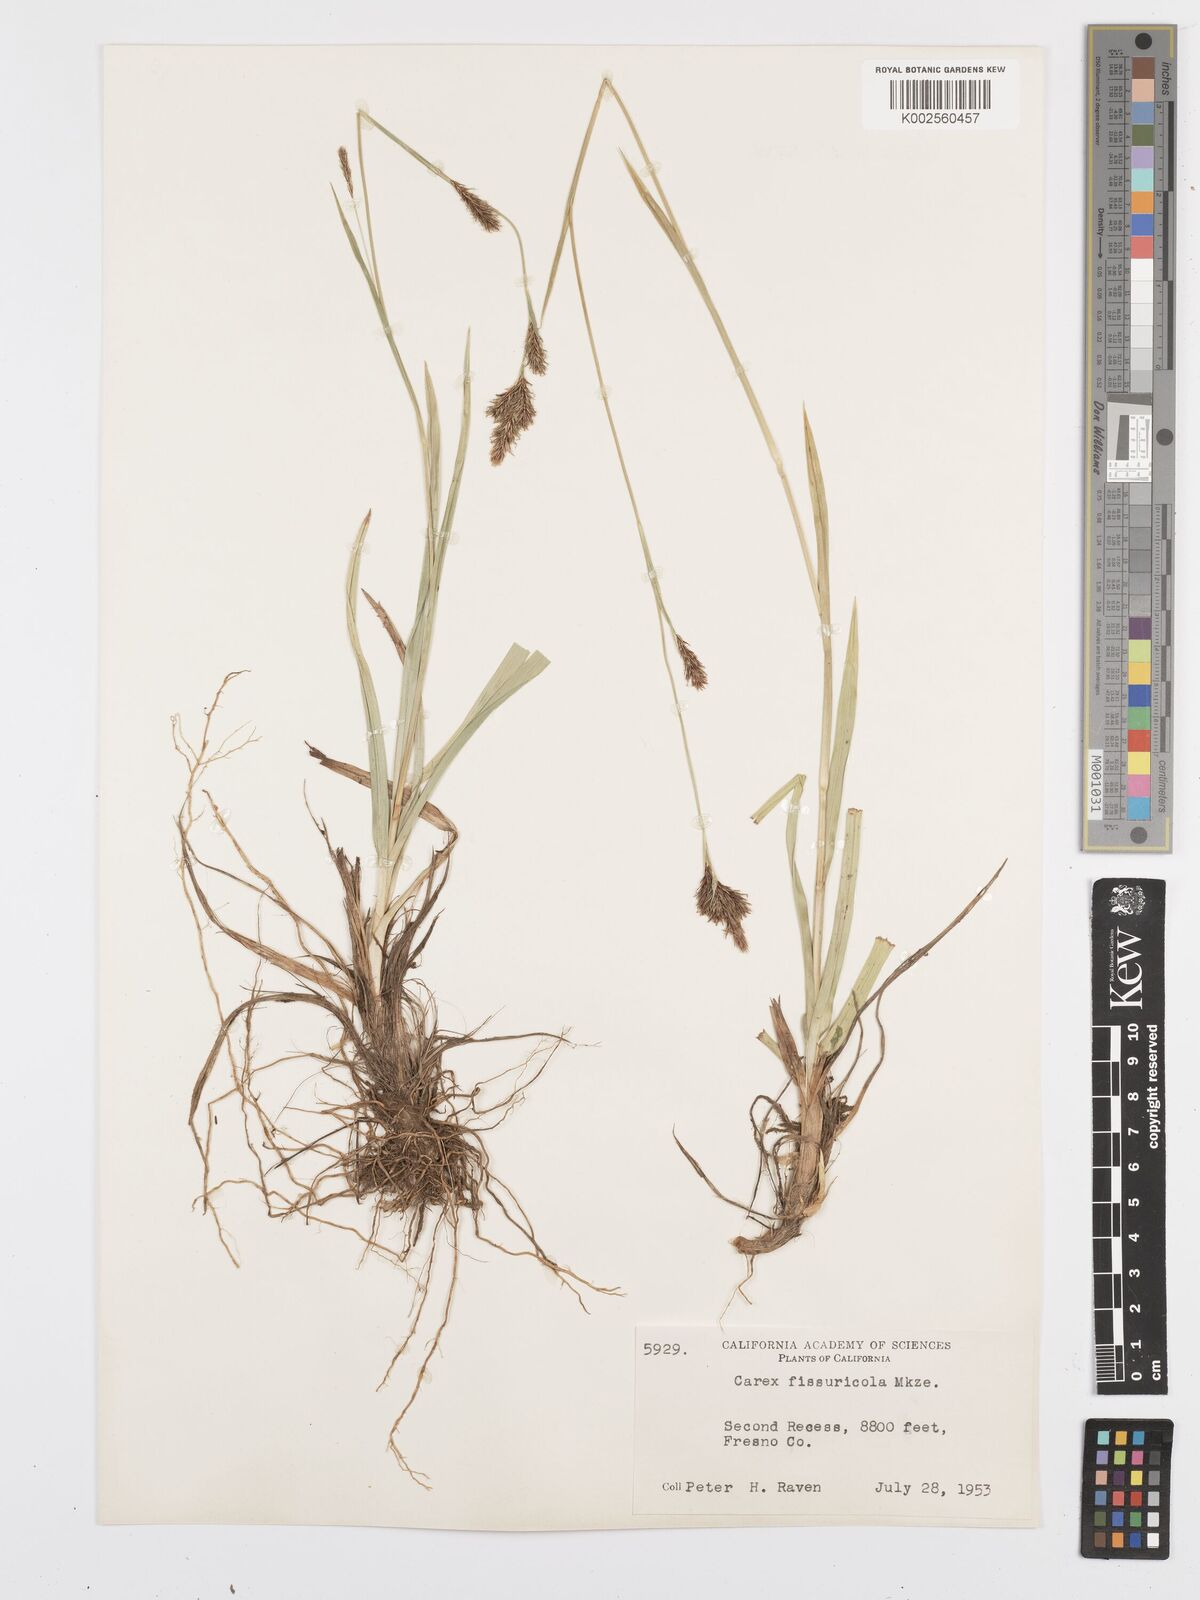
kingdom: Plantae
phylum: Tracheophyta
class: Liliopsida
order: Poales
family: Cyperaceae
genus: Carex
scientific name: Carex fissuricola
